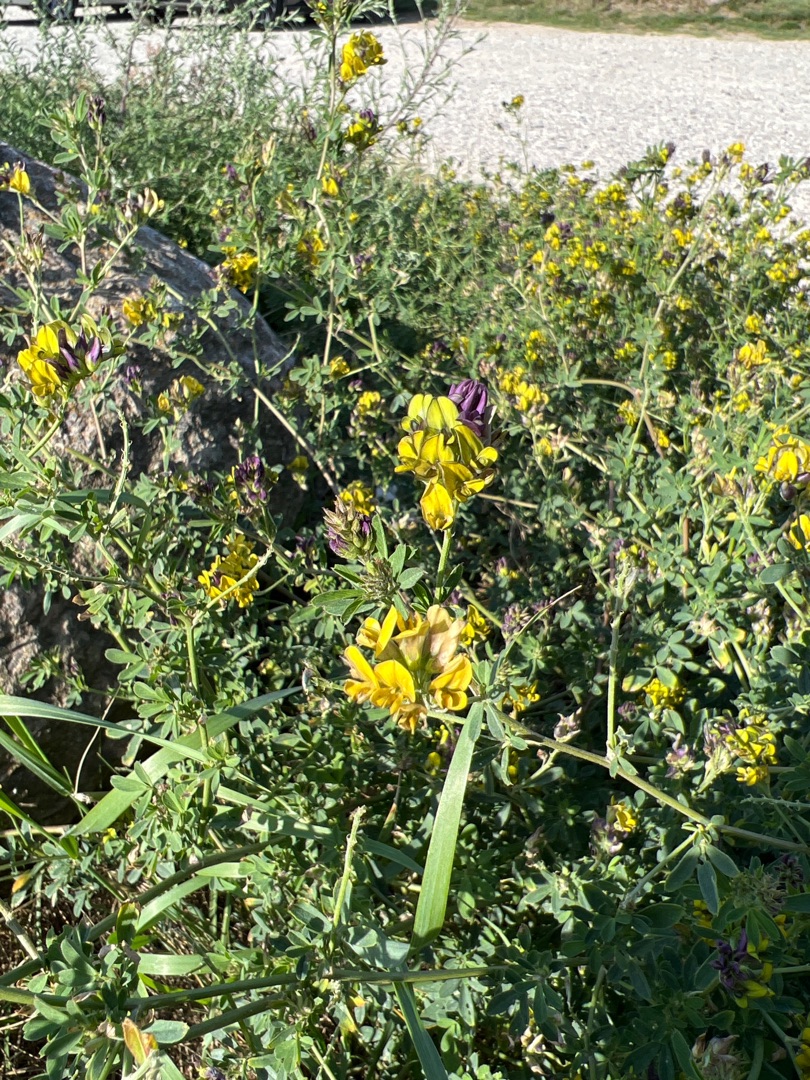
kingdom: Plantae
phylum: Tracheophyta
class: Magnoliopsida
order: Fabales
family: Fabaceae
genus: Medicago
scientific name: Medicago varia
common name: Sand-lucerne
